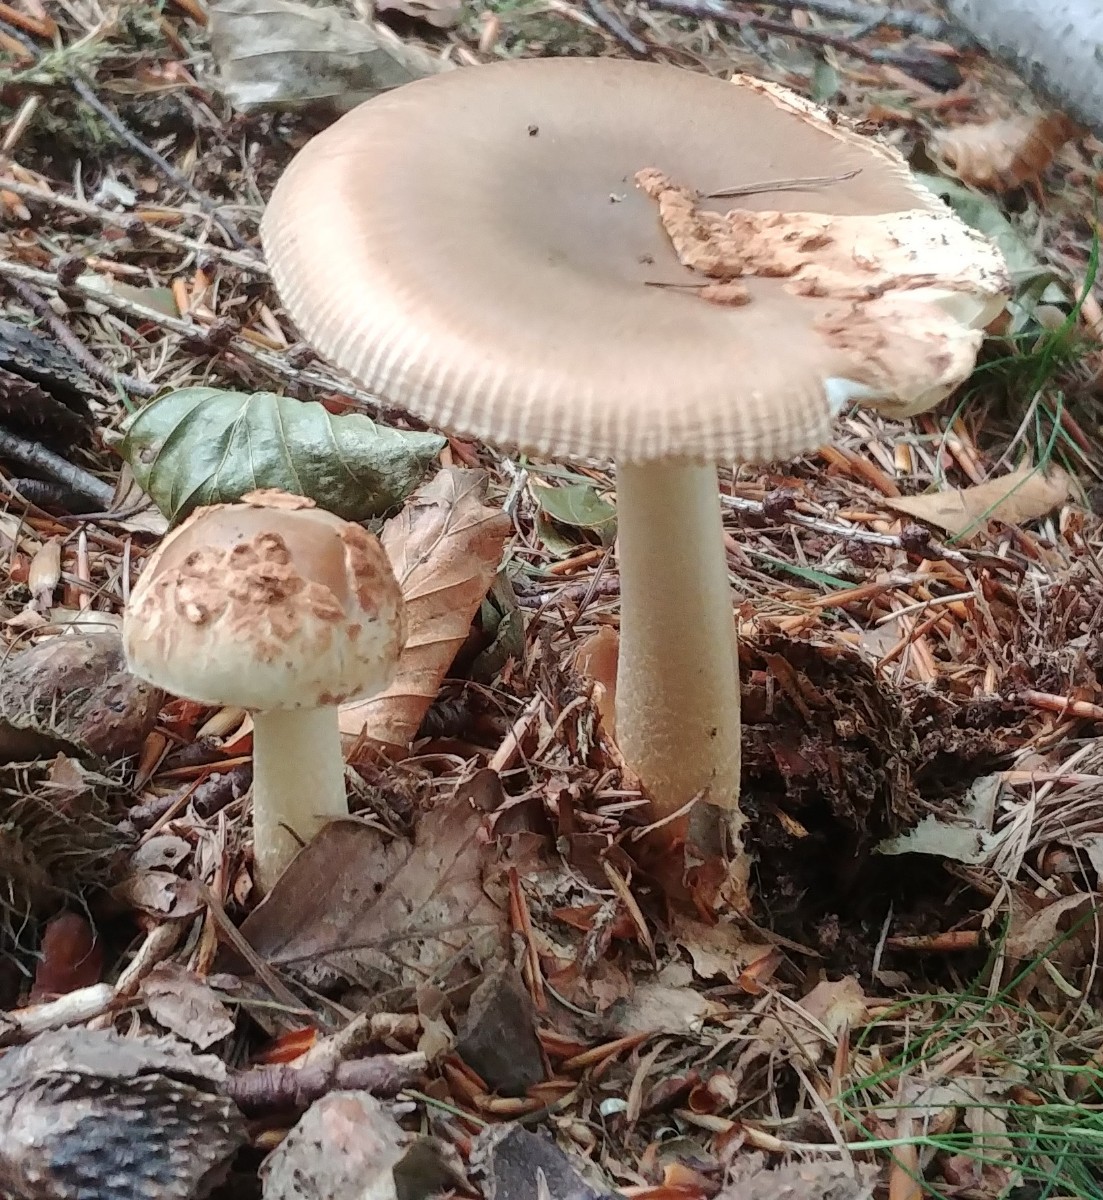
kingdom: Fungi
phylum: Basidiomycota
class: Agaricomycetes
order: Agaricales
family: Amanitaceae
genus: Amanita
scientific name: Amanita fulva
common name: brun kam-fluesvamp
